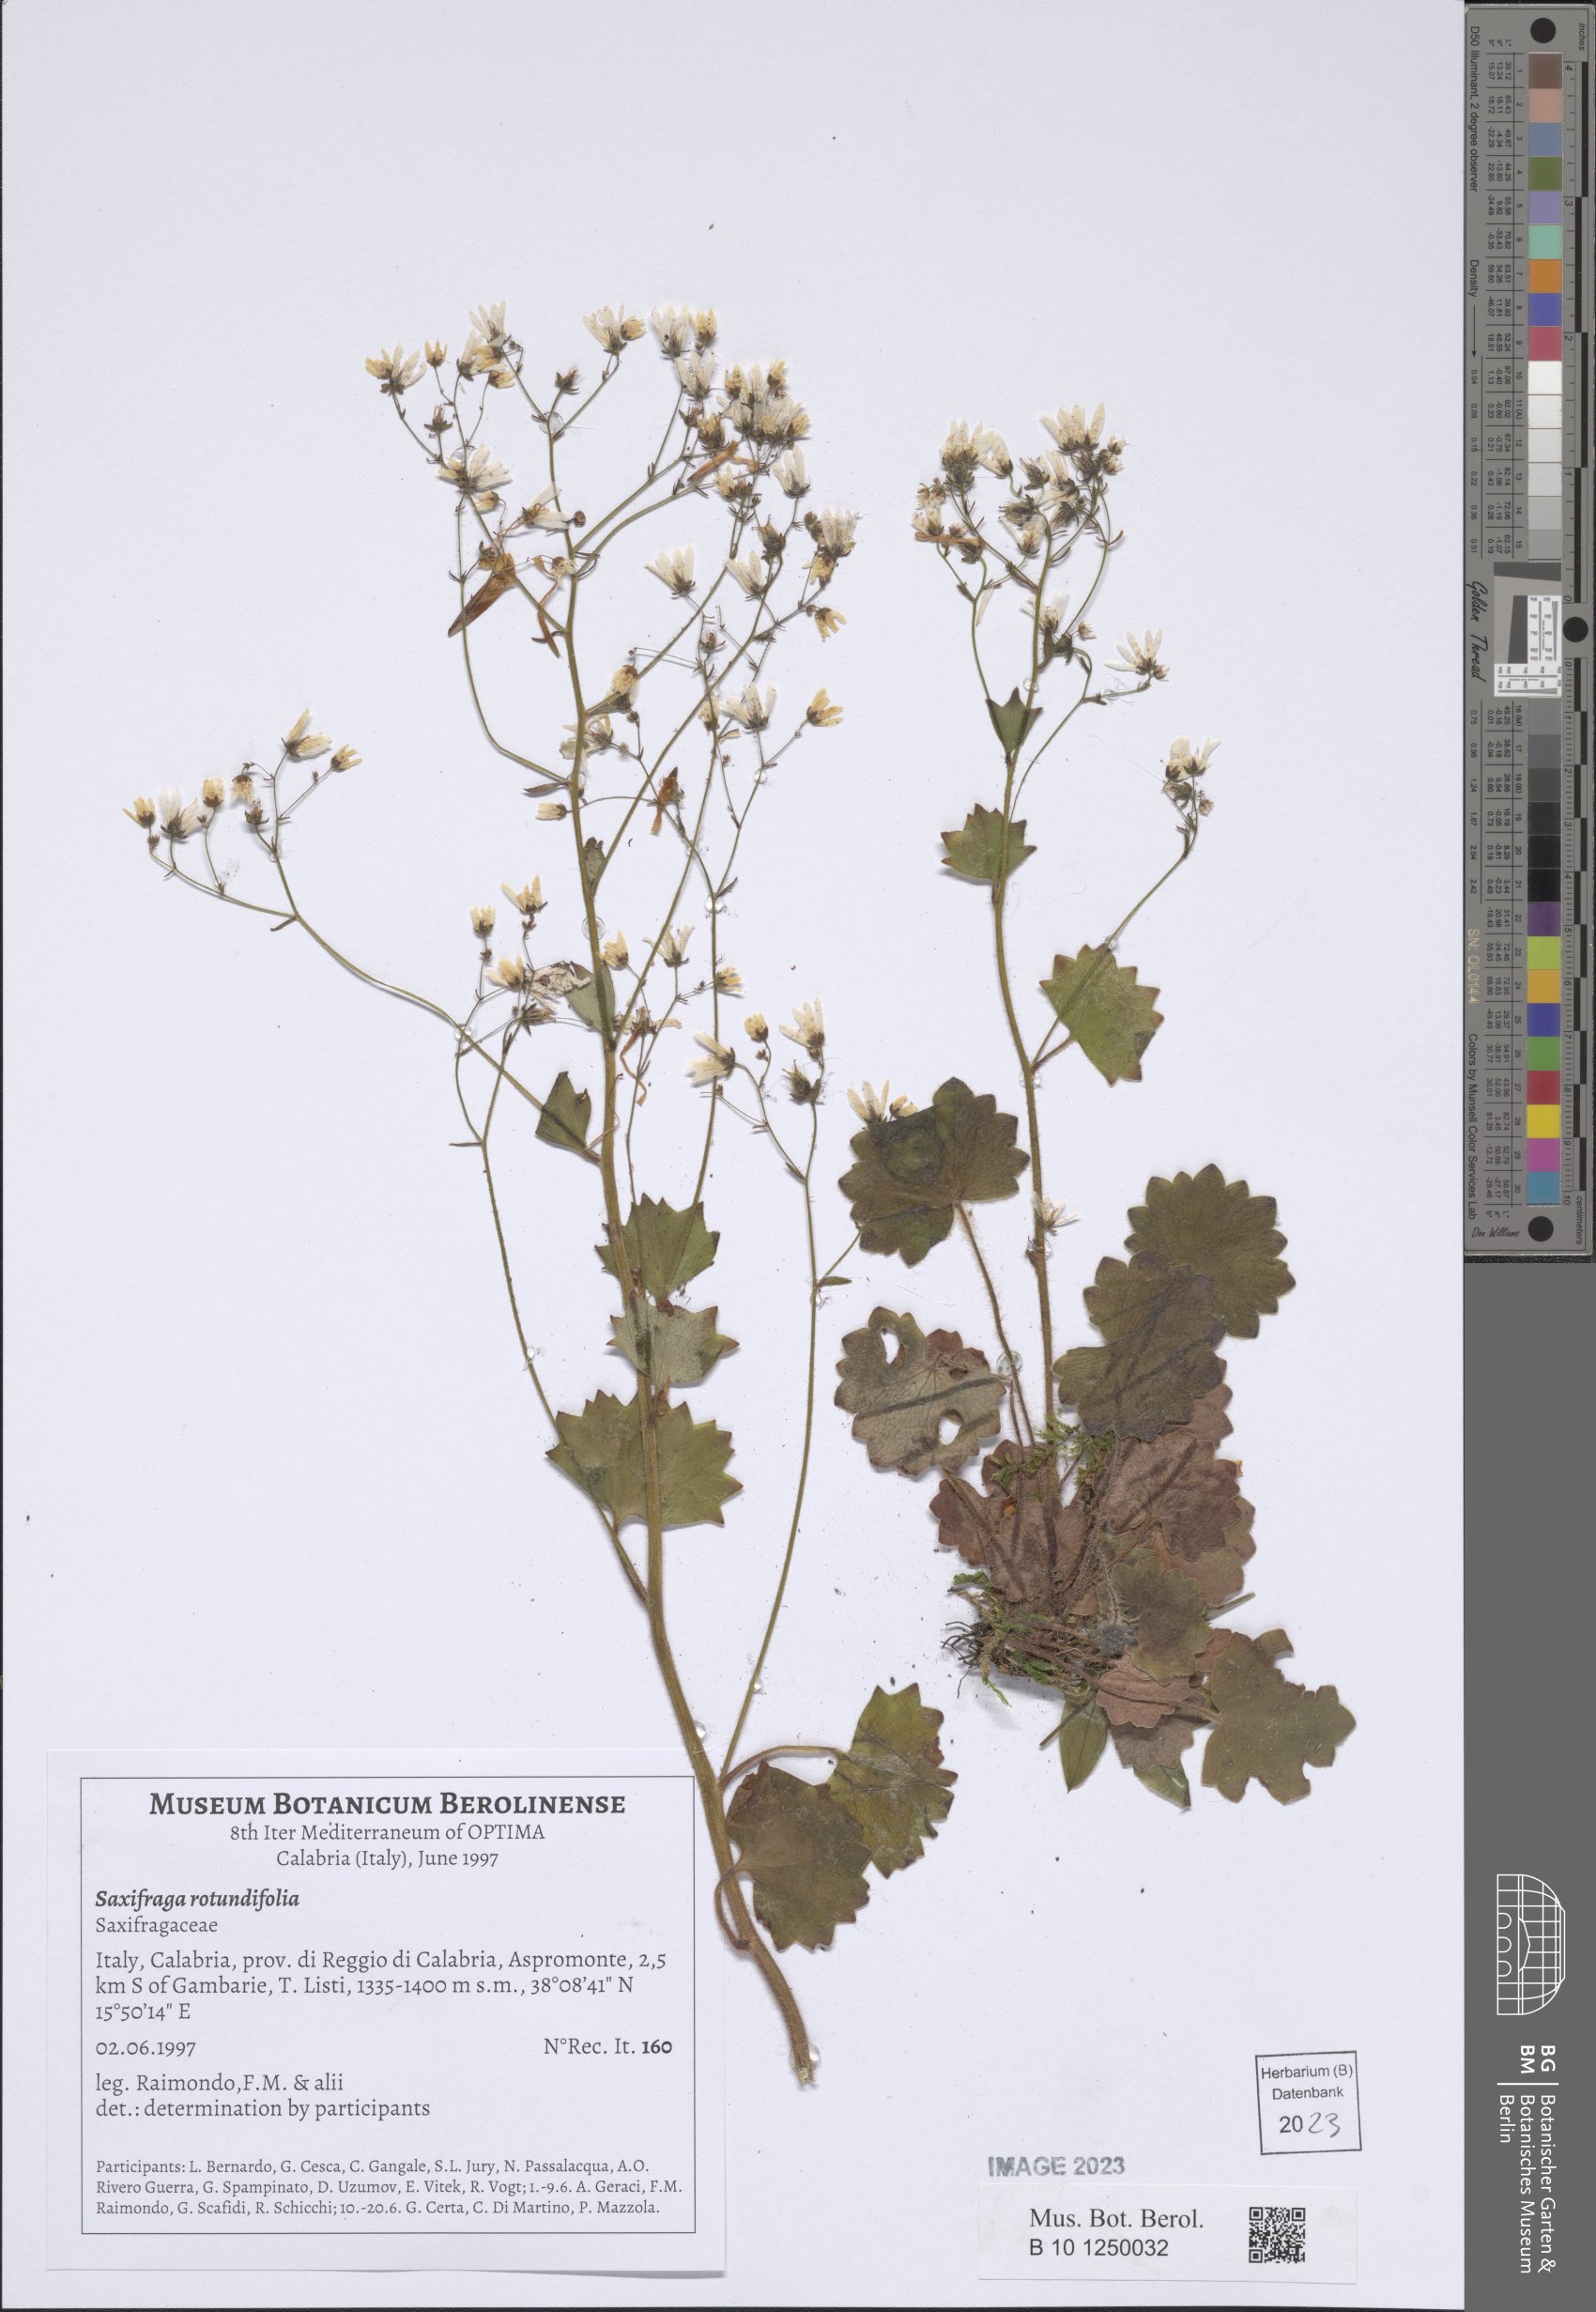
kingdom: Plantae
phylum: Tracheophyta
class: Magnoliopsida
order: Saxifragales
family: Saxifragaceae
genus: Saxifraga
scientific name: Saxifraga rotundifolia
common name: Round-leaved saxifrage
